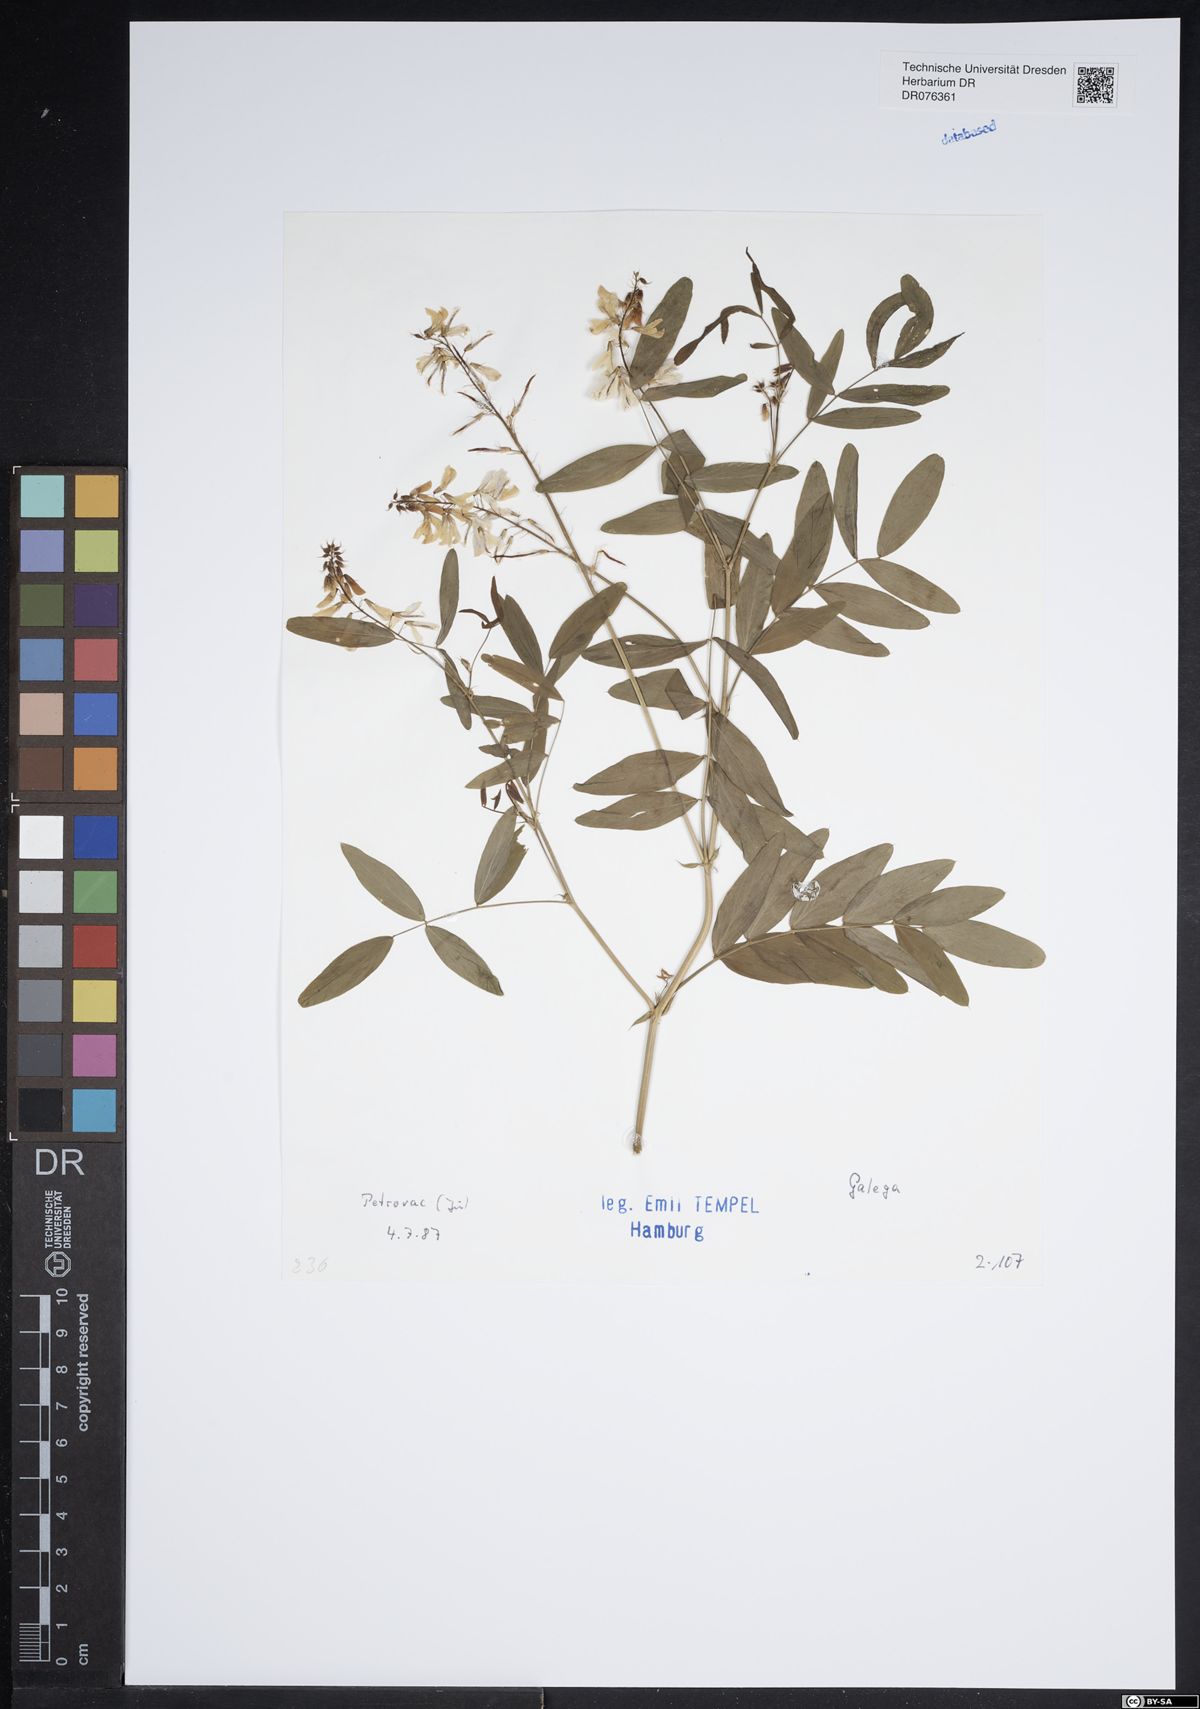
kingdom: Plantae
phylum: Tracheophyta
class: Magnoliopsida
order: Fabales
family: Fabaceae
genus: Galega
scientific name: Galega
